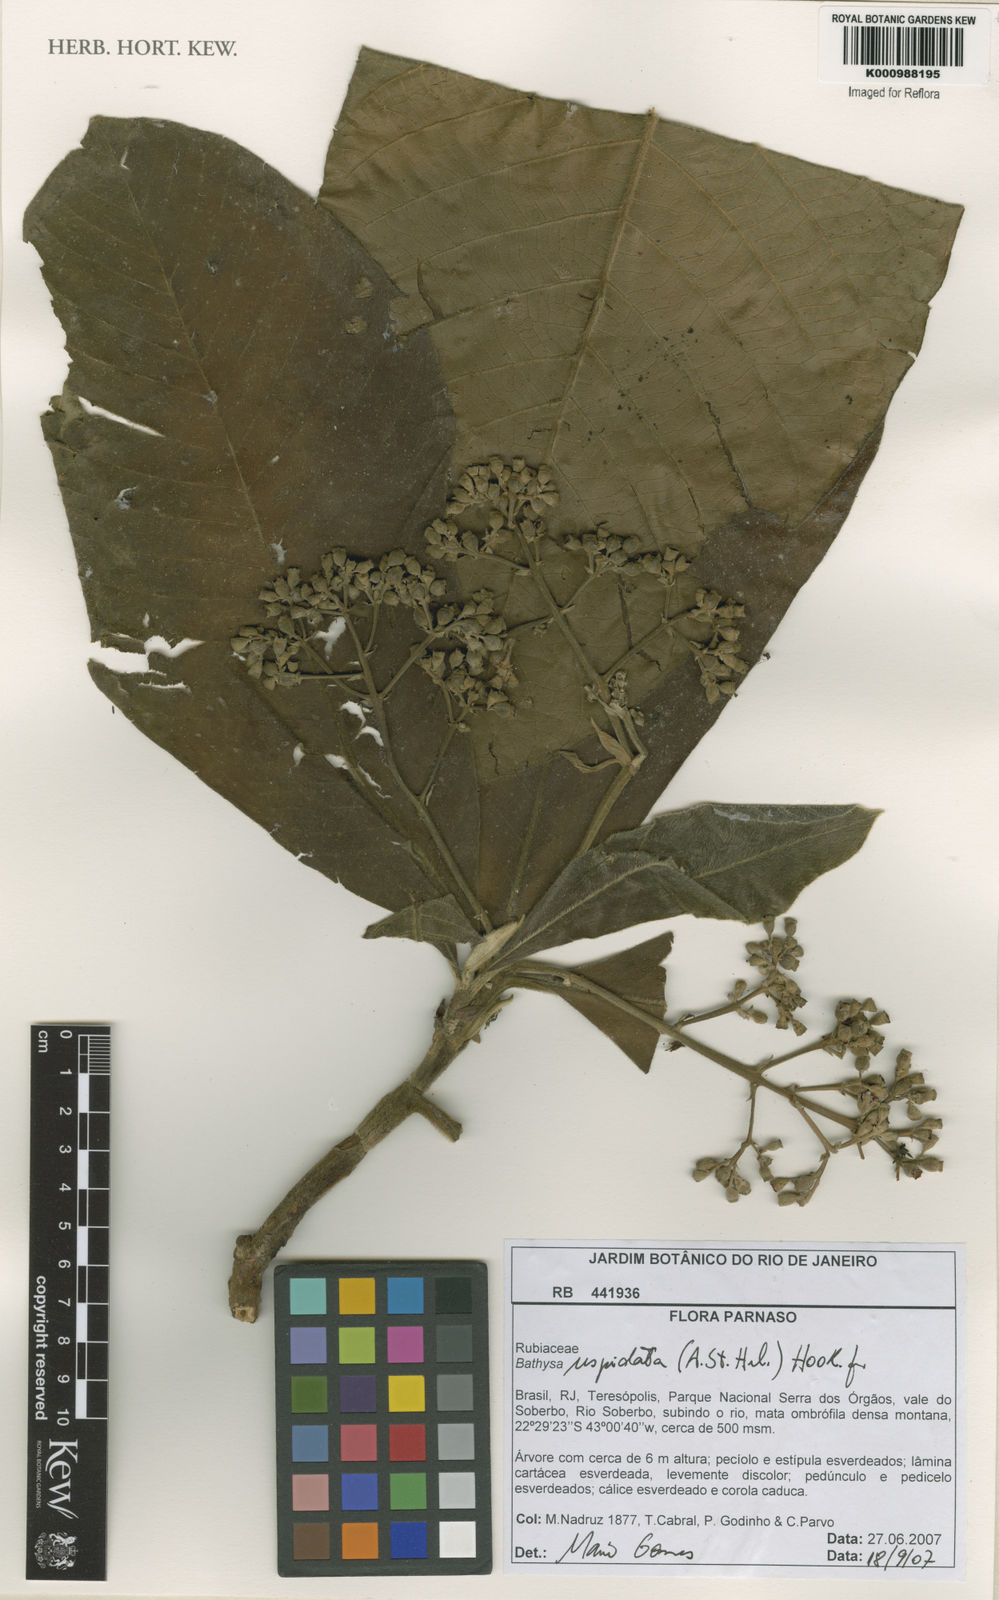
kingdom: Plantae
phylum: Tracheophyta
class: Magnoliopsida
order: Gentianales
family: Rubiaceae
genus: Schizocalyx
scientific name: Schizocalyx cuspidatus
